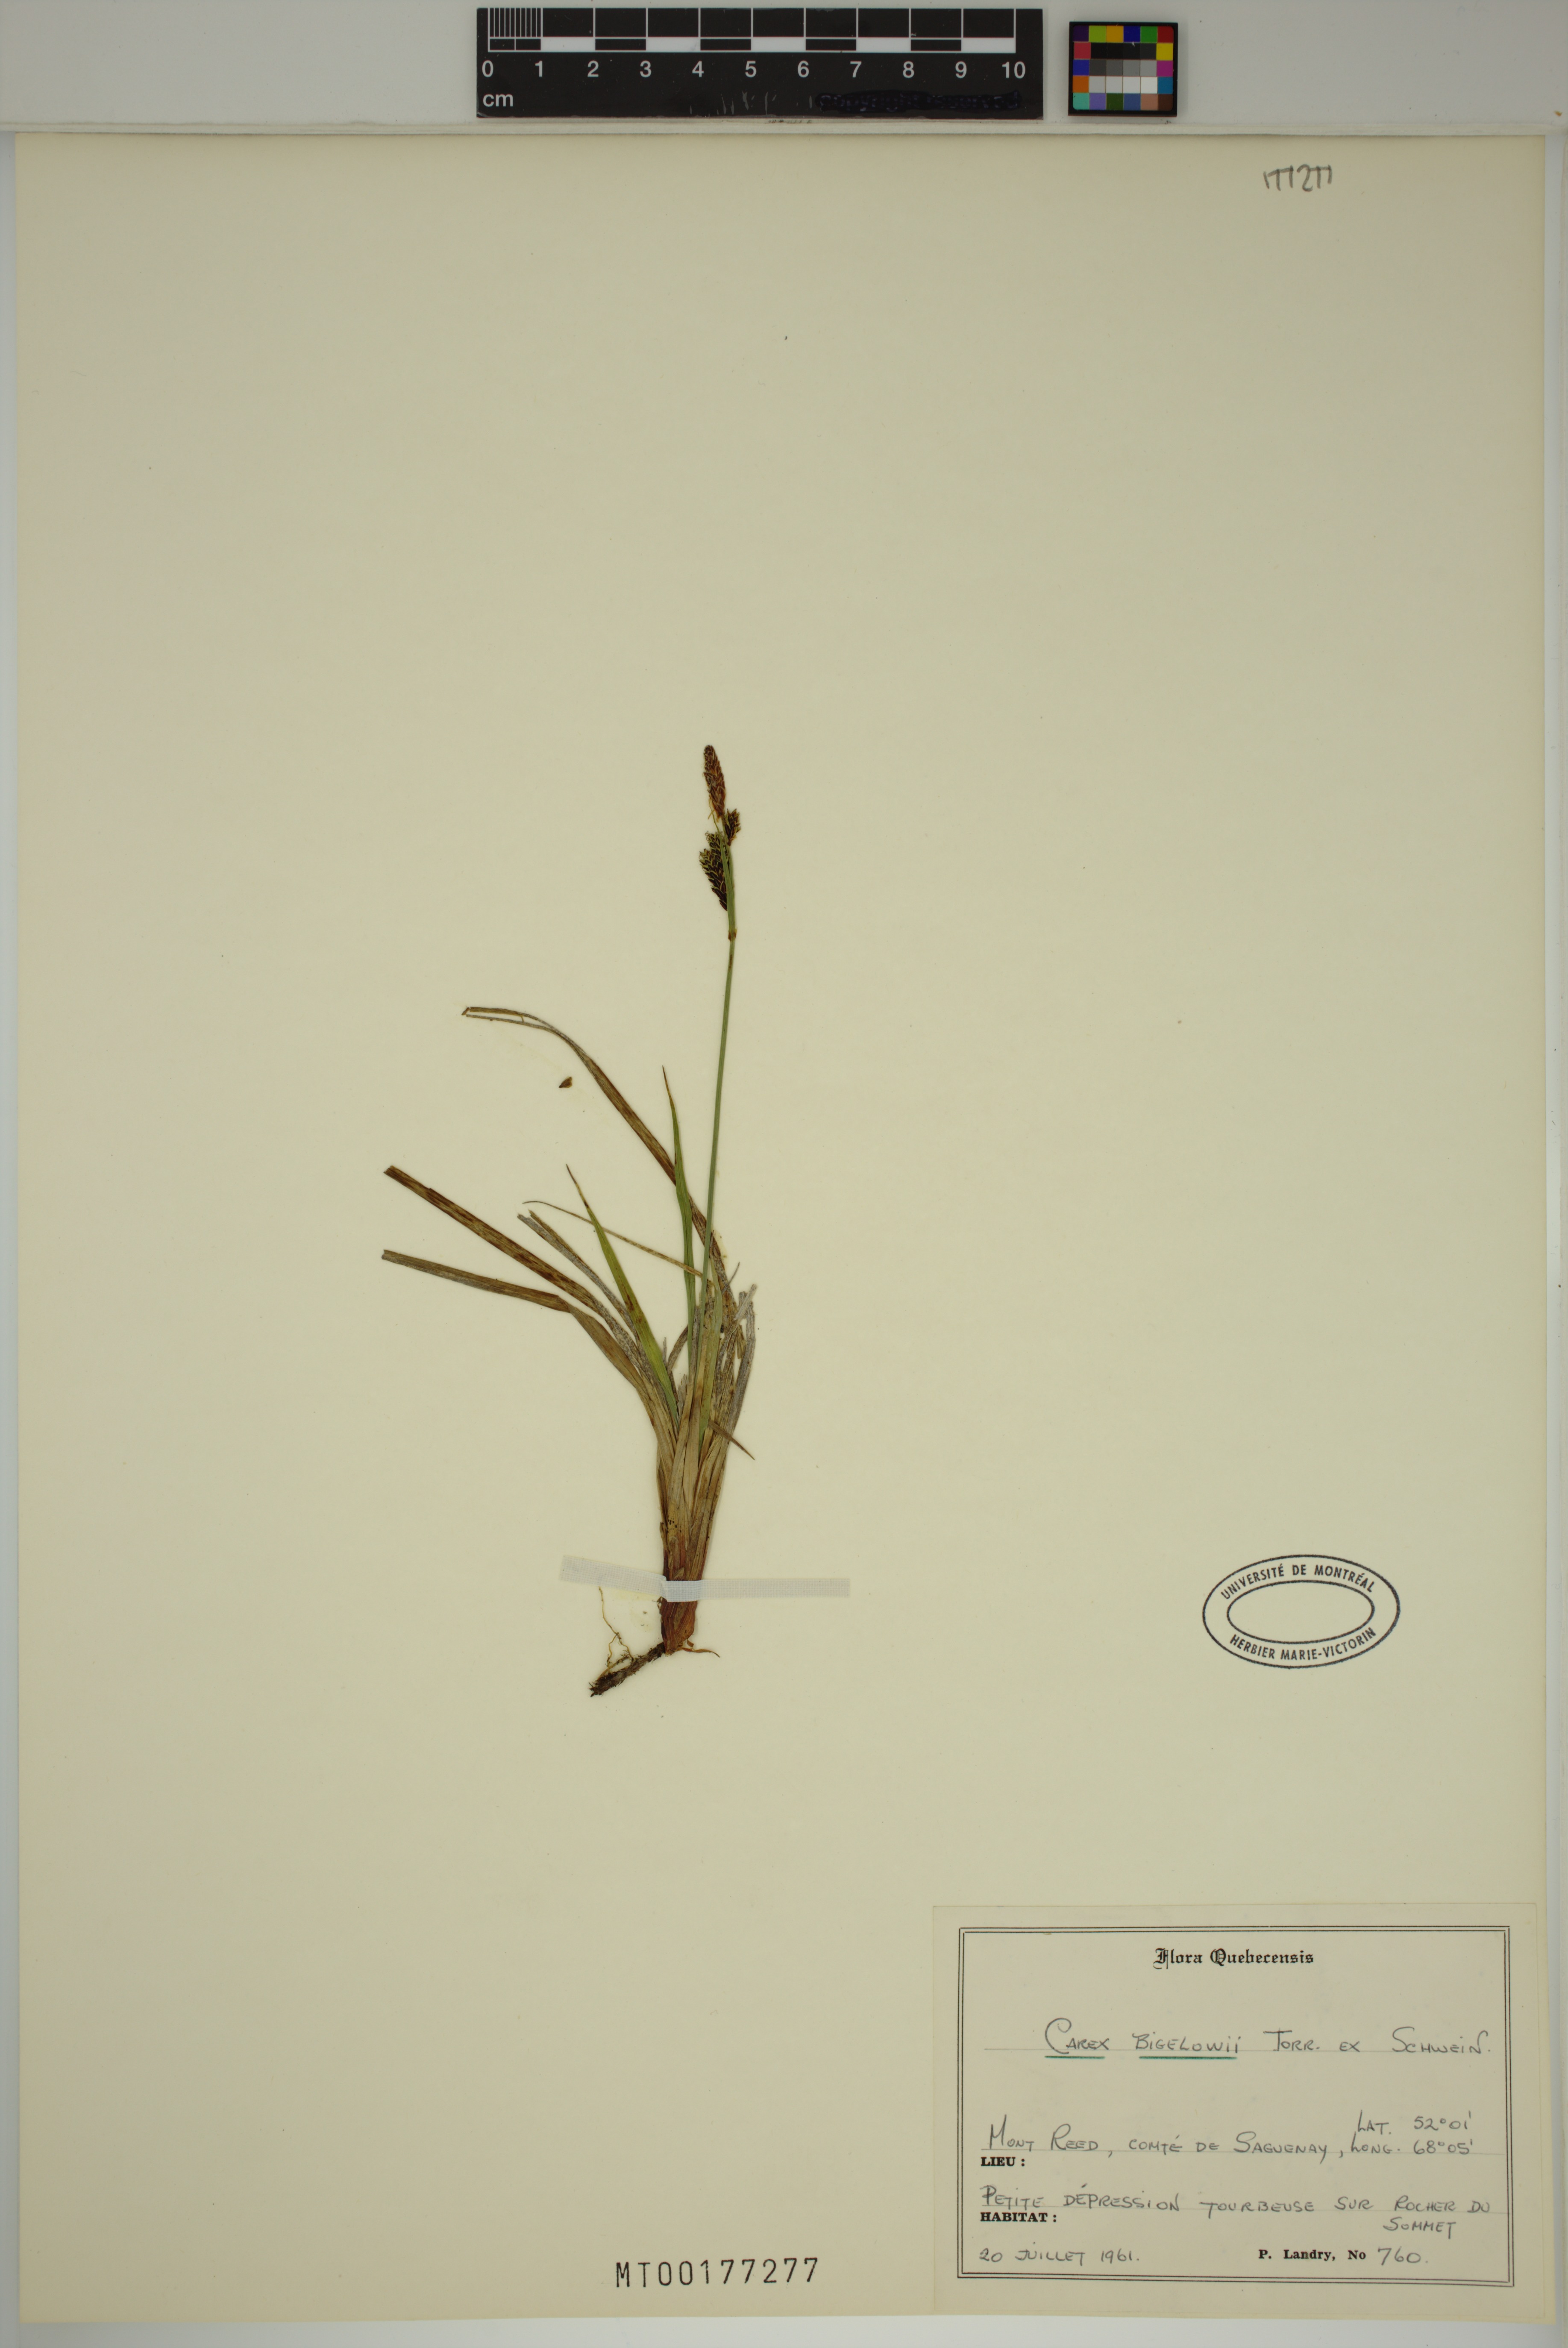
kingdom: Plantae
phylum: Tracheophyta
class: Liliopsida
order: Poales
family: Cyperaceae
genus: Carex
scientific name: Carex bigelowii
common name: Stiff sedge
